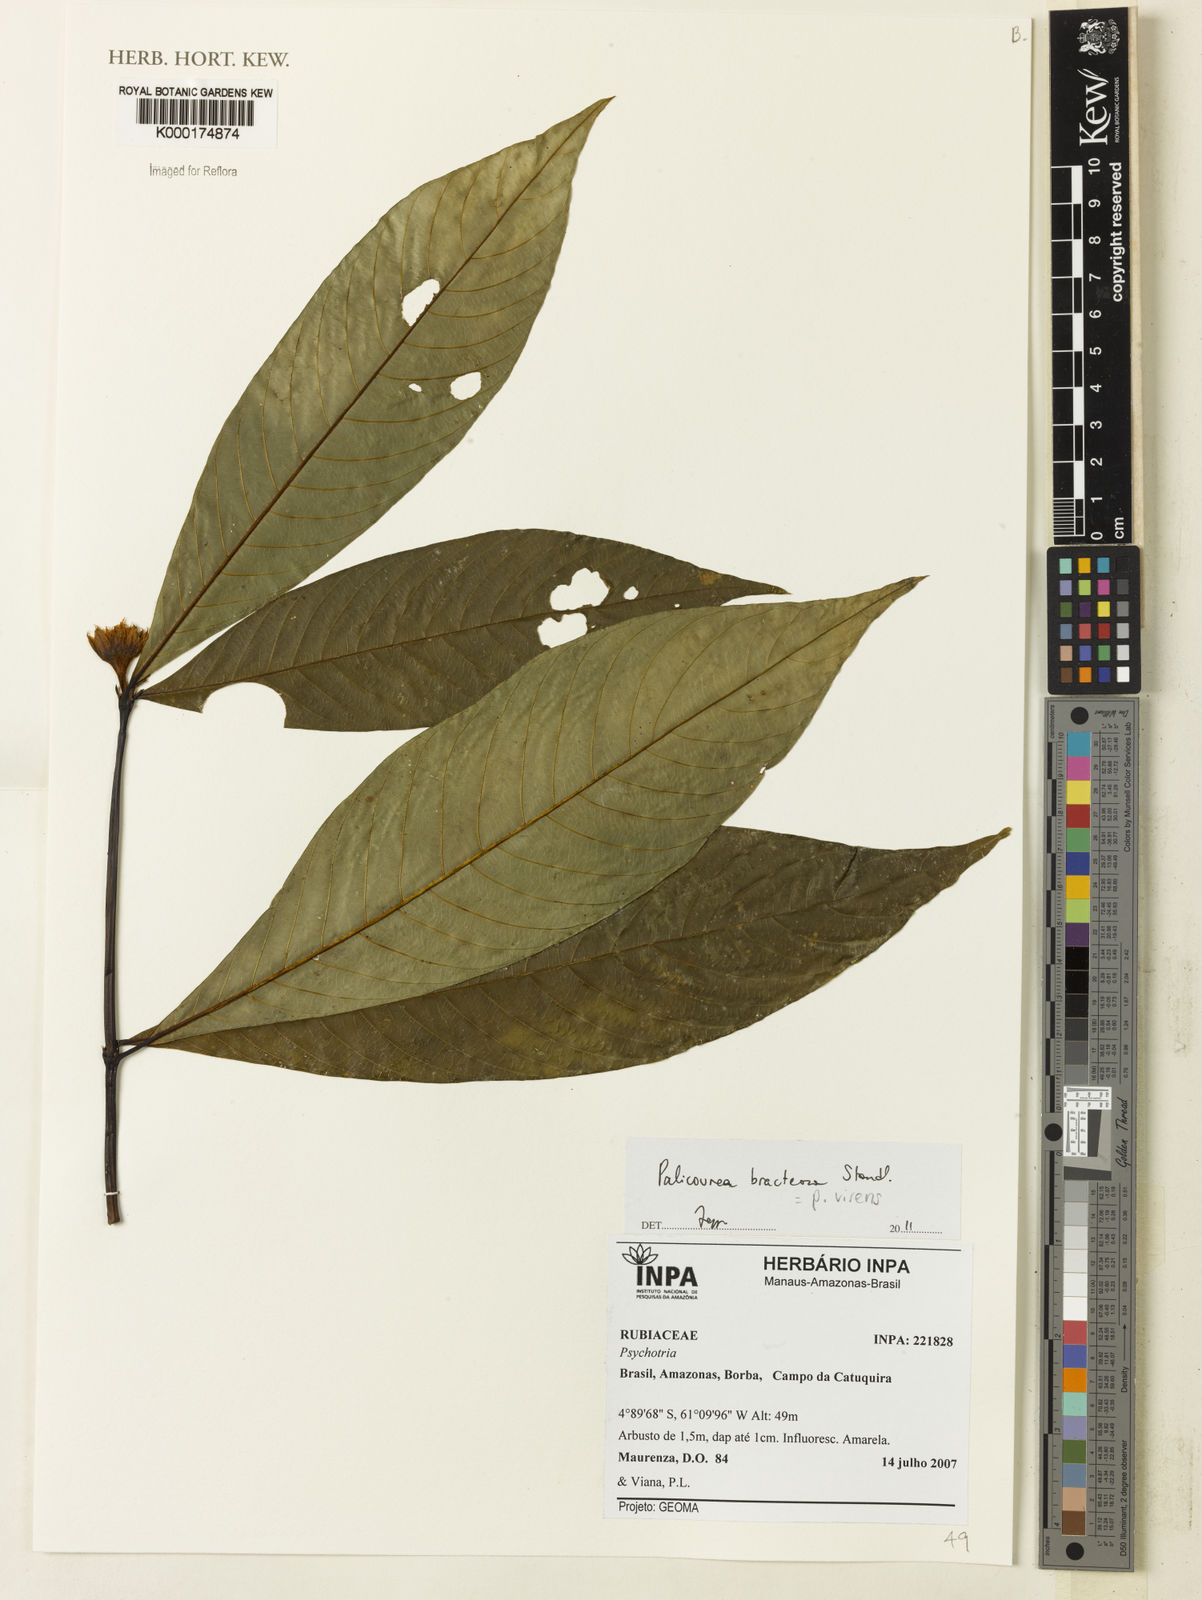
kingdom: Plantae
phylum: Tracheophyta
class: Magnoliopsida
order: Gentianales
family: Rubiaceae
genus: Palicourea
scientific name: Palicourea virens
